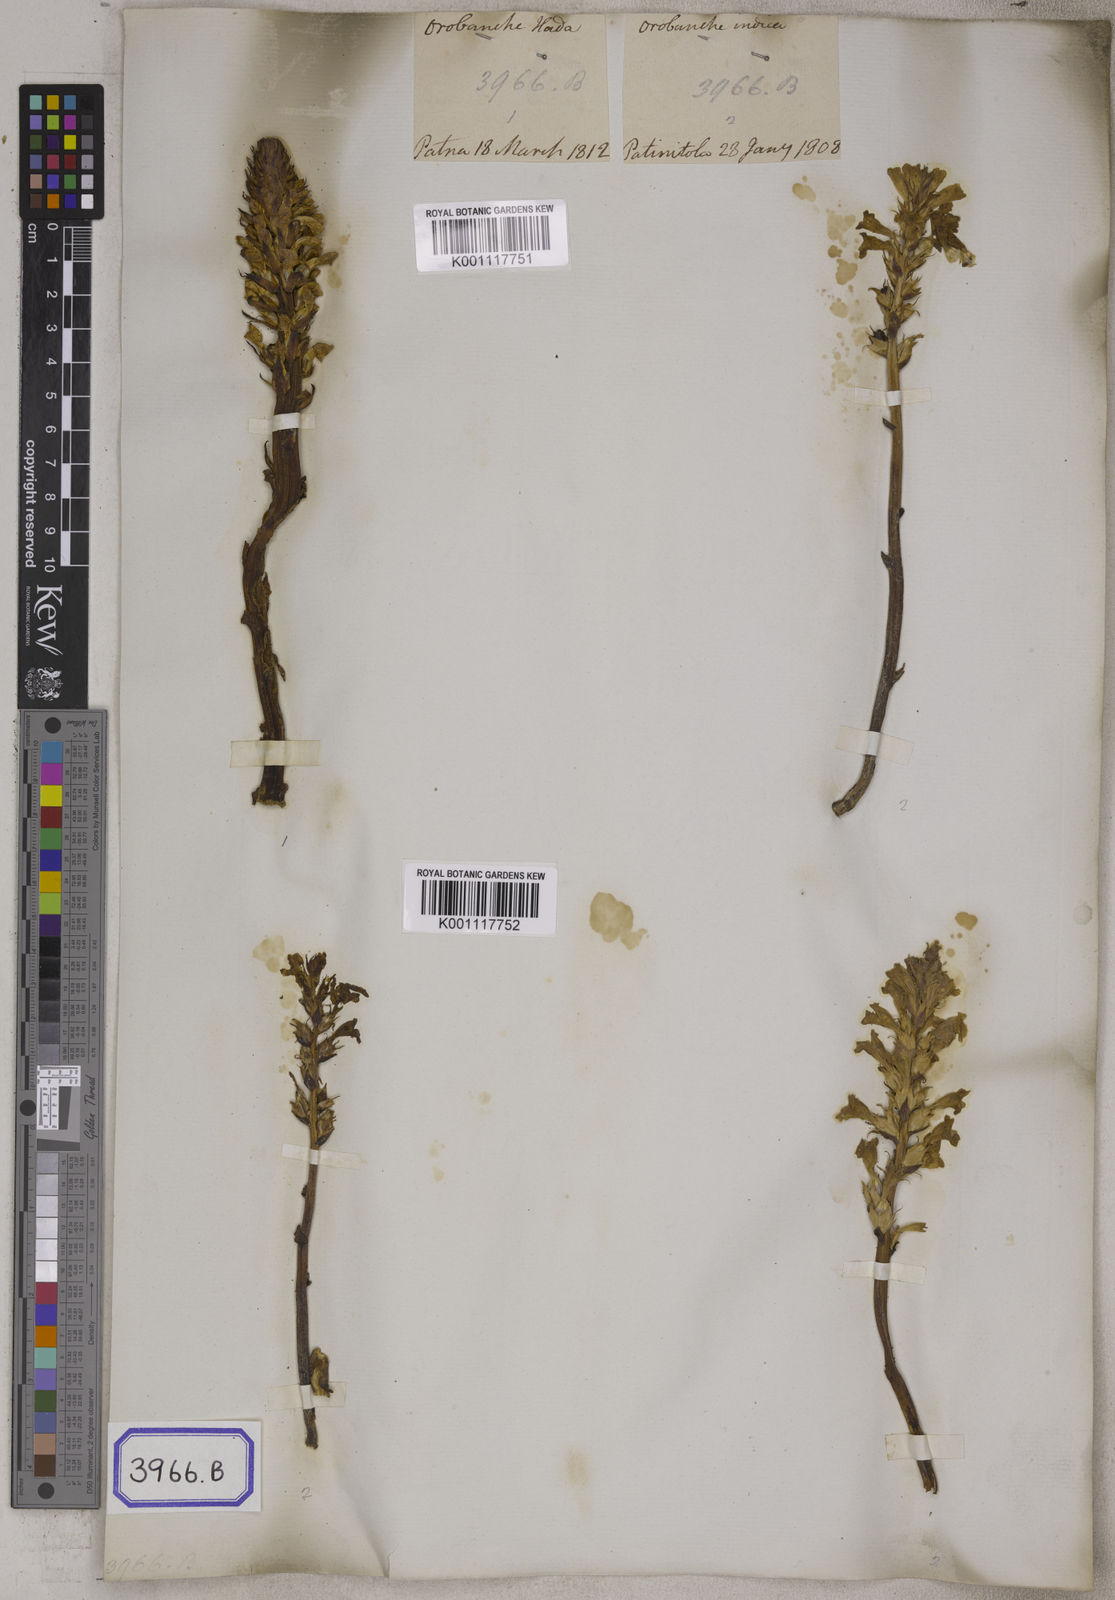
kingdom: Plantae
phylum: Tracheophyta
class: Magnoliopsida
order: Lamiales
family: Orobanchaceae
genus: Orobanche
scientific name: Orobanche cernua
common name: Australian broomrape
